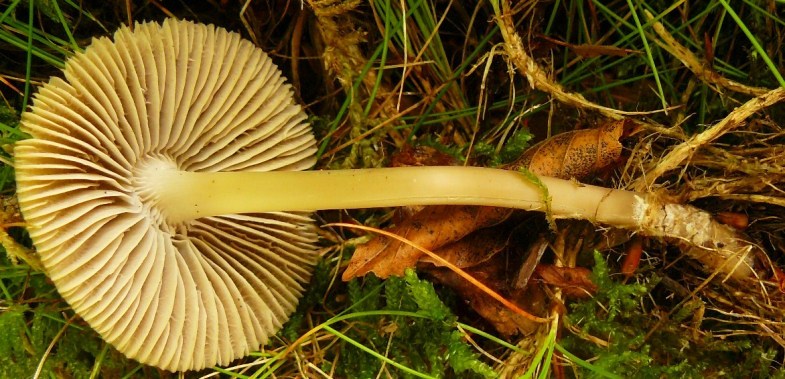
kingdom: Fungi
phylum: Basidiomycota
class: Agaricomycetes
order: Agaricales
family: Mycenaceae
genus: Mycena
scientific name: Mycena galericulata
